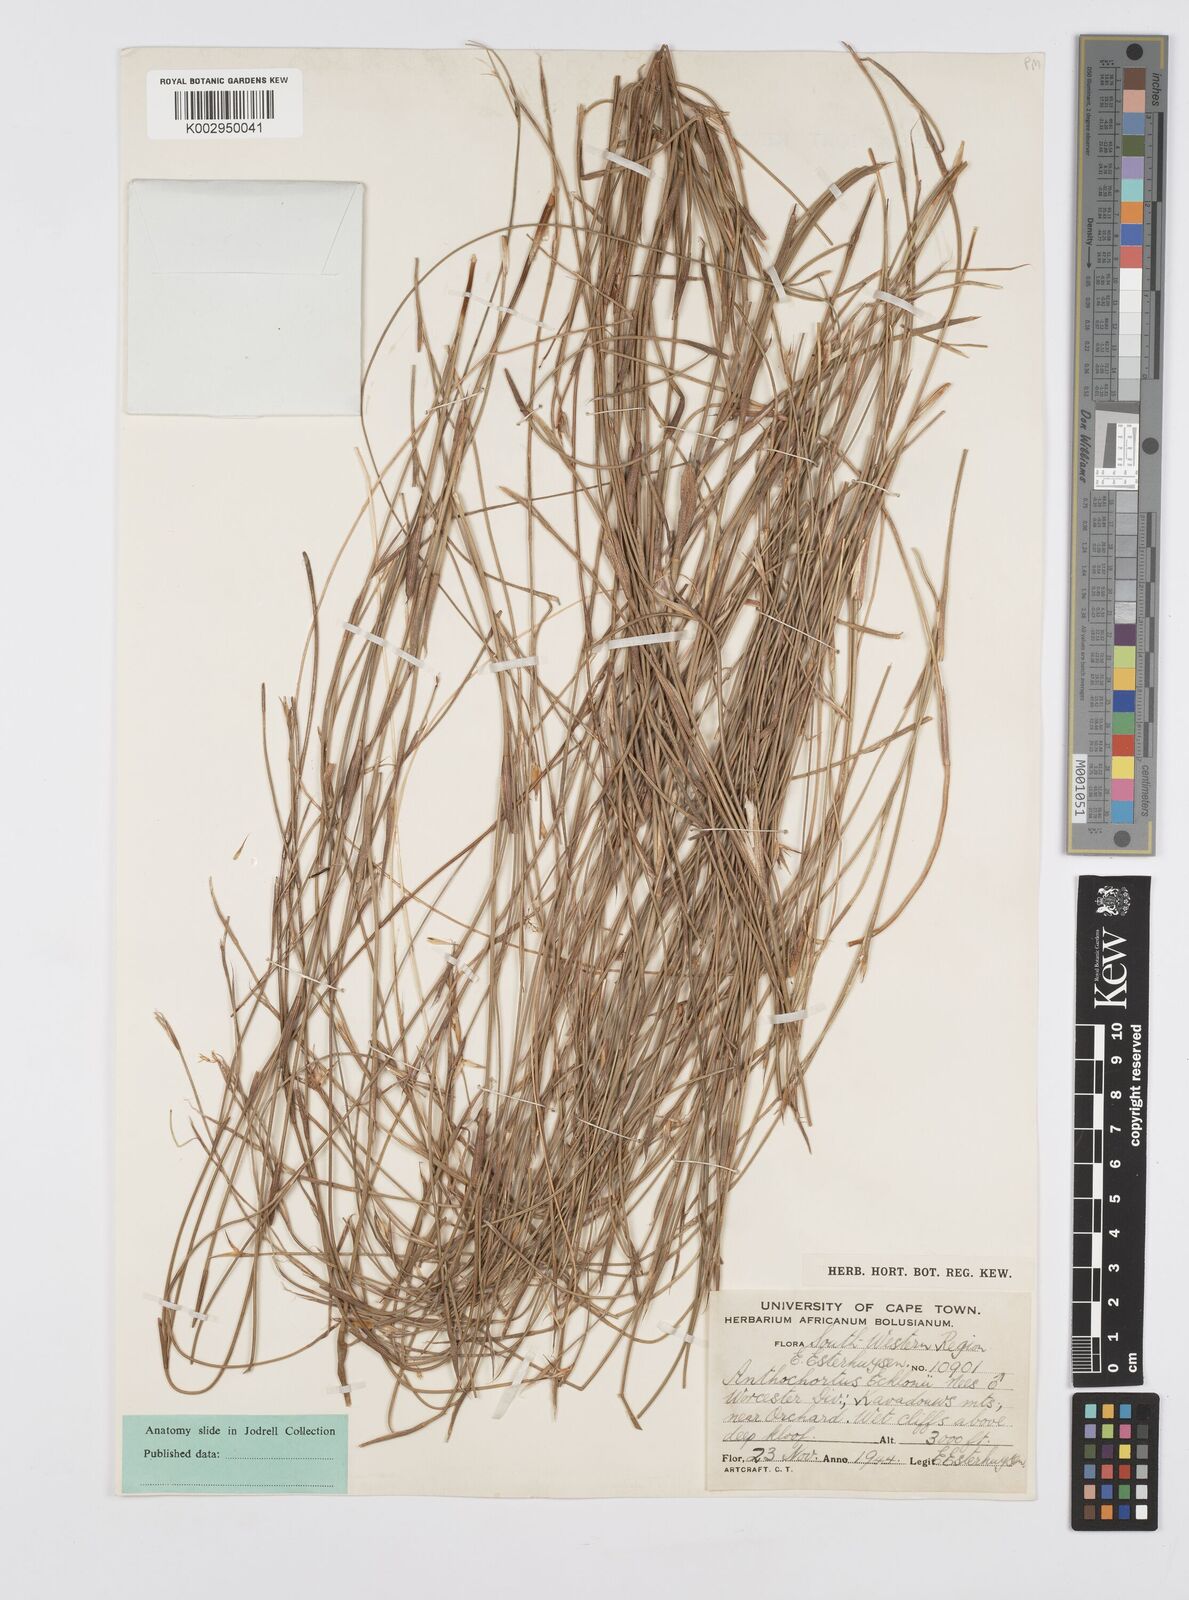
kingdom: Plantae
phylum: Tracheophyta
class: Liliopsida
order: Poales
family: Restionaceae
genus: Anthochortus
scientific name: Anthochortus ecklonii
